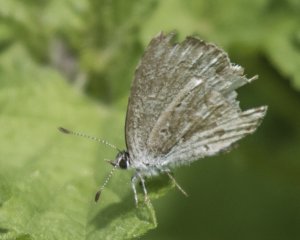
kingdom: Animalia
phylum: Arthropoda
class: Insecta
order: Lepidoptera
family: Lycaenidae
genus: Celastrina
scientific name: Celastrina lucia
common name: Northern Spring Azure
